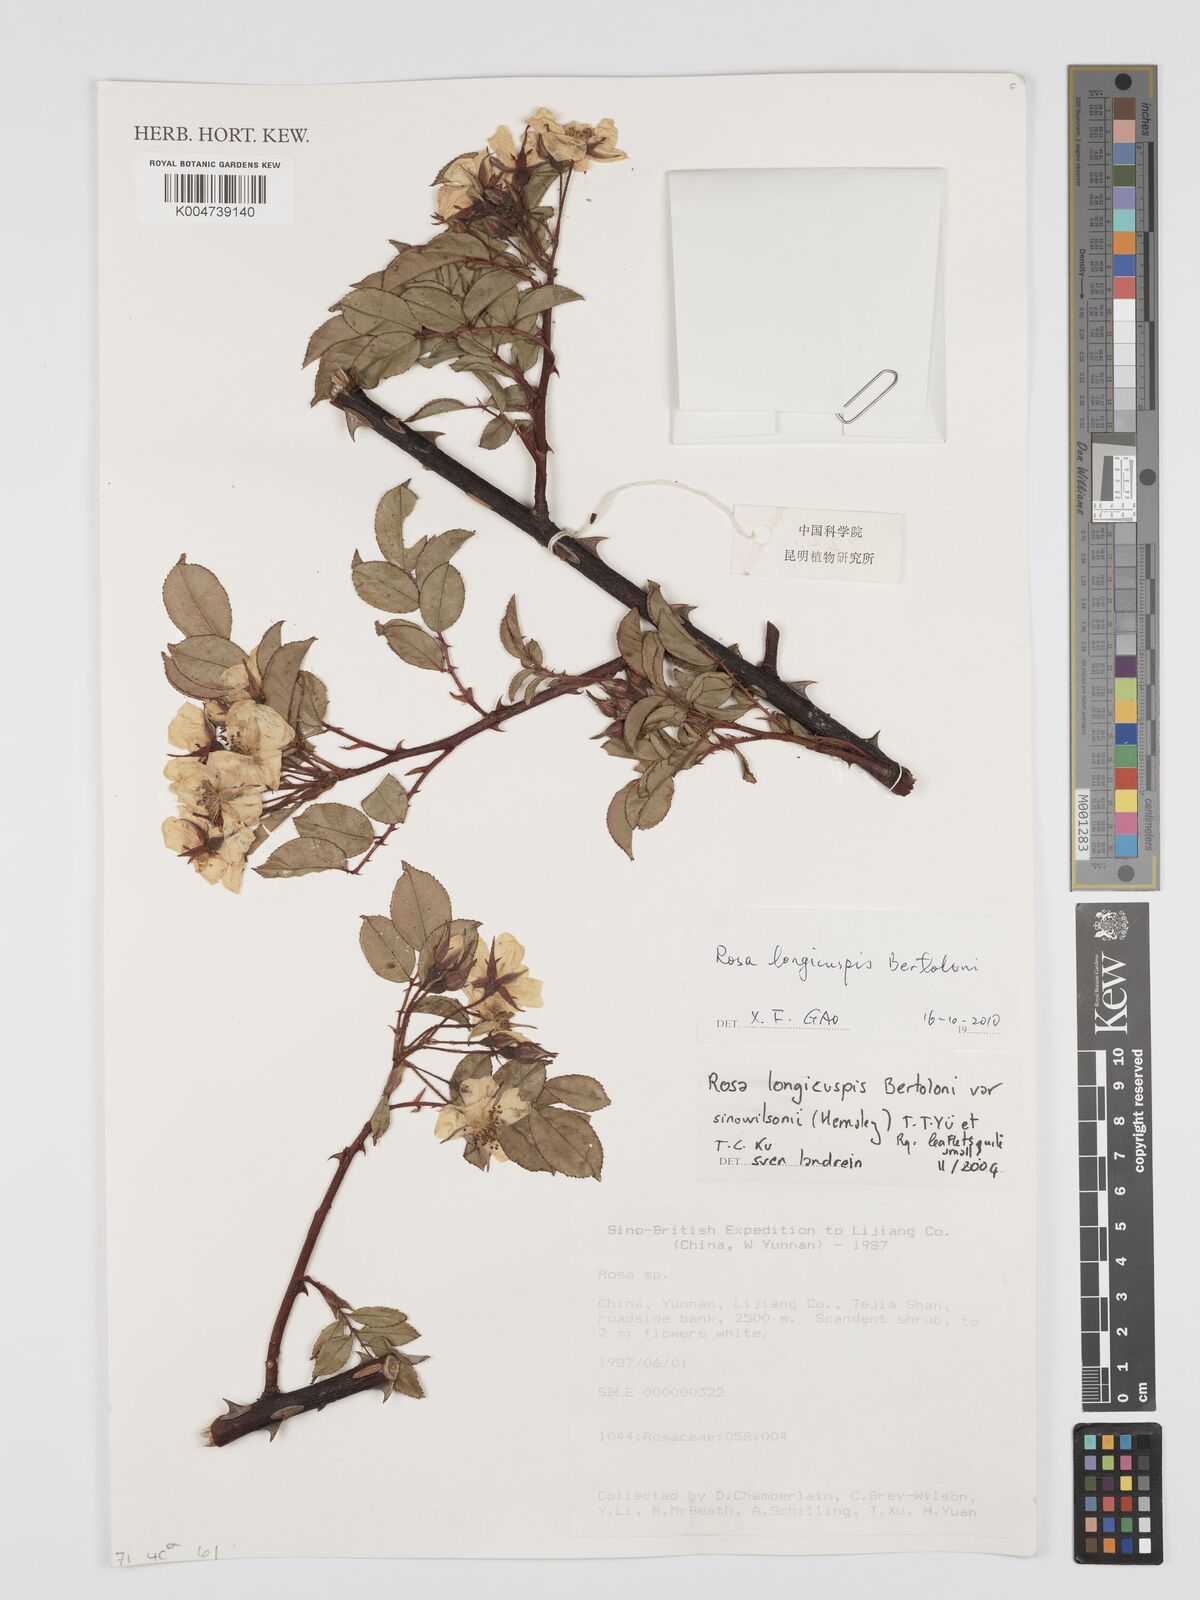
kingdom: Plantae
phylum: Tracheophyta
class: Magnoliopsida
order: Rosales
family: Rosaceae
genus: Rosa
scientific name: Rosa longicuspis
